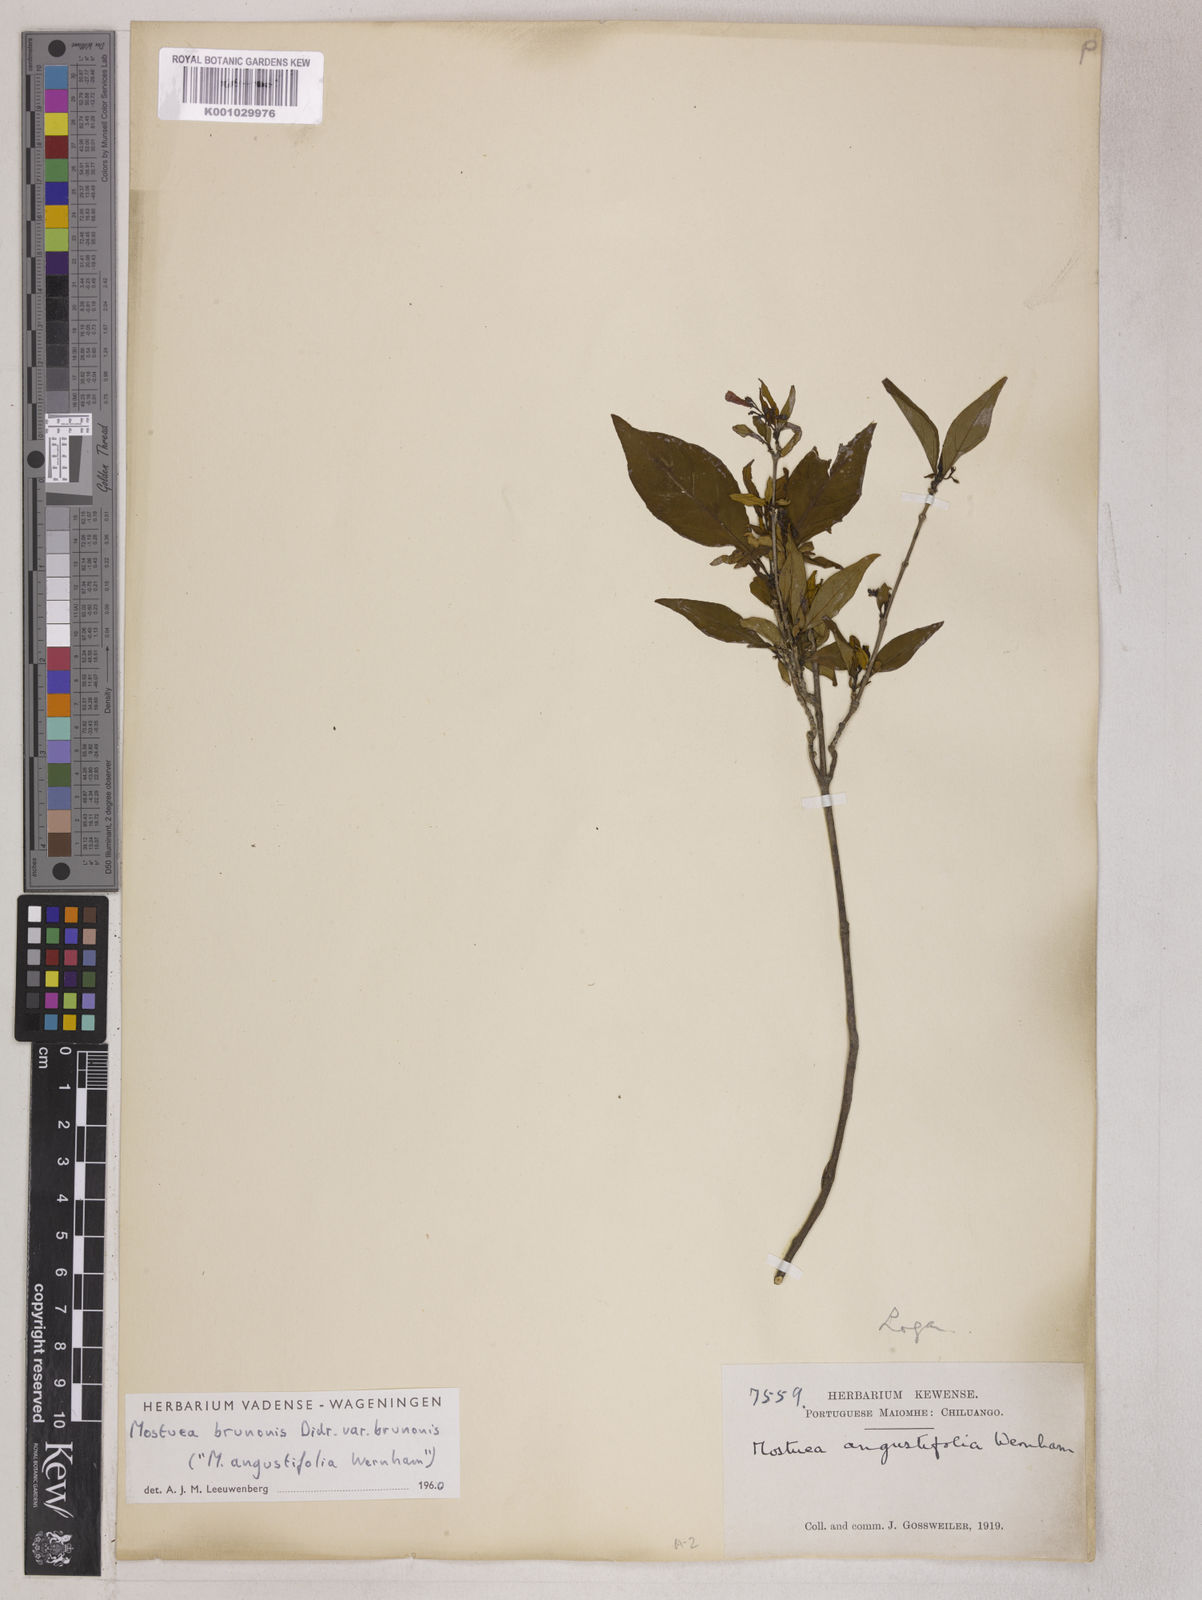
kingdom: Plantae
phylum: Tracheophyta
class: Magnoliopsida
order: Gentianales
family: Gelsemiaceae
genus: Mostuea
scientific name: Mostuea brunonis
